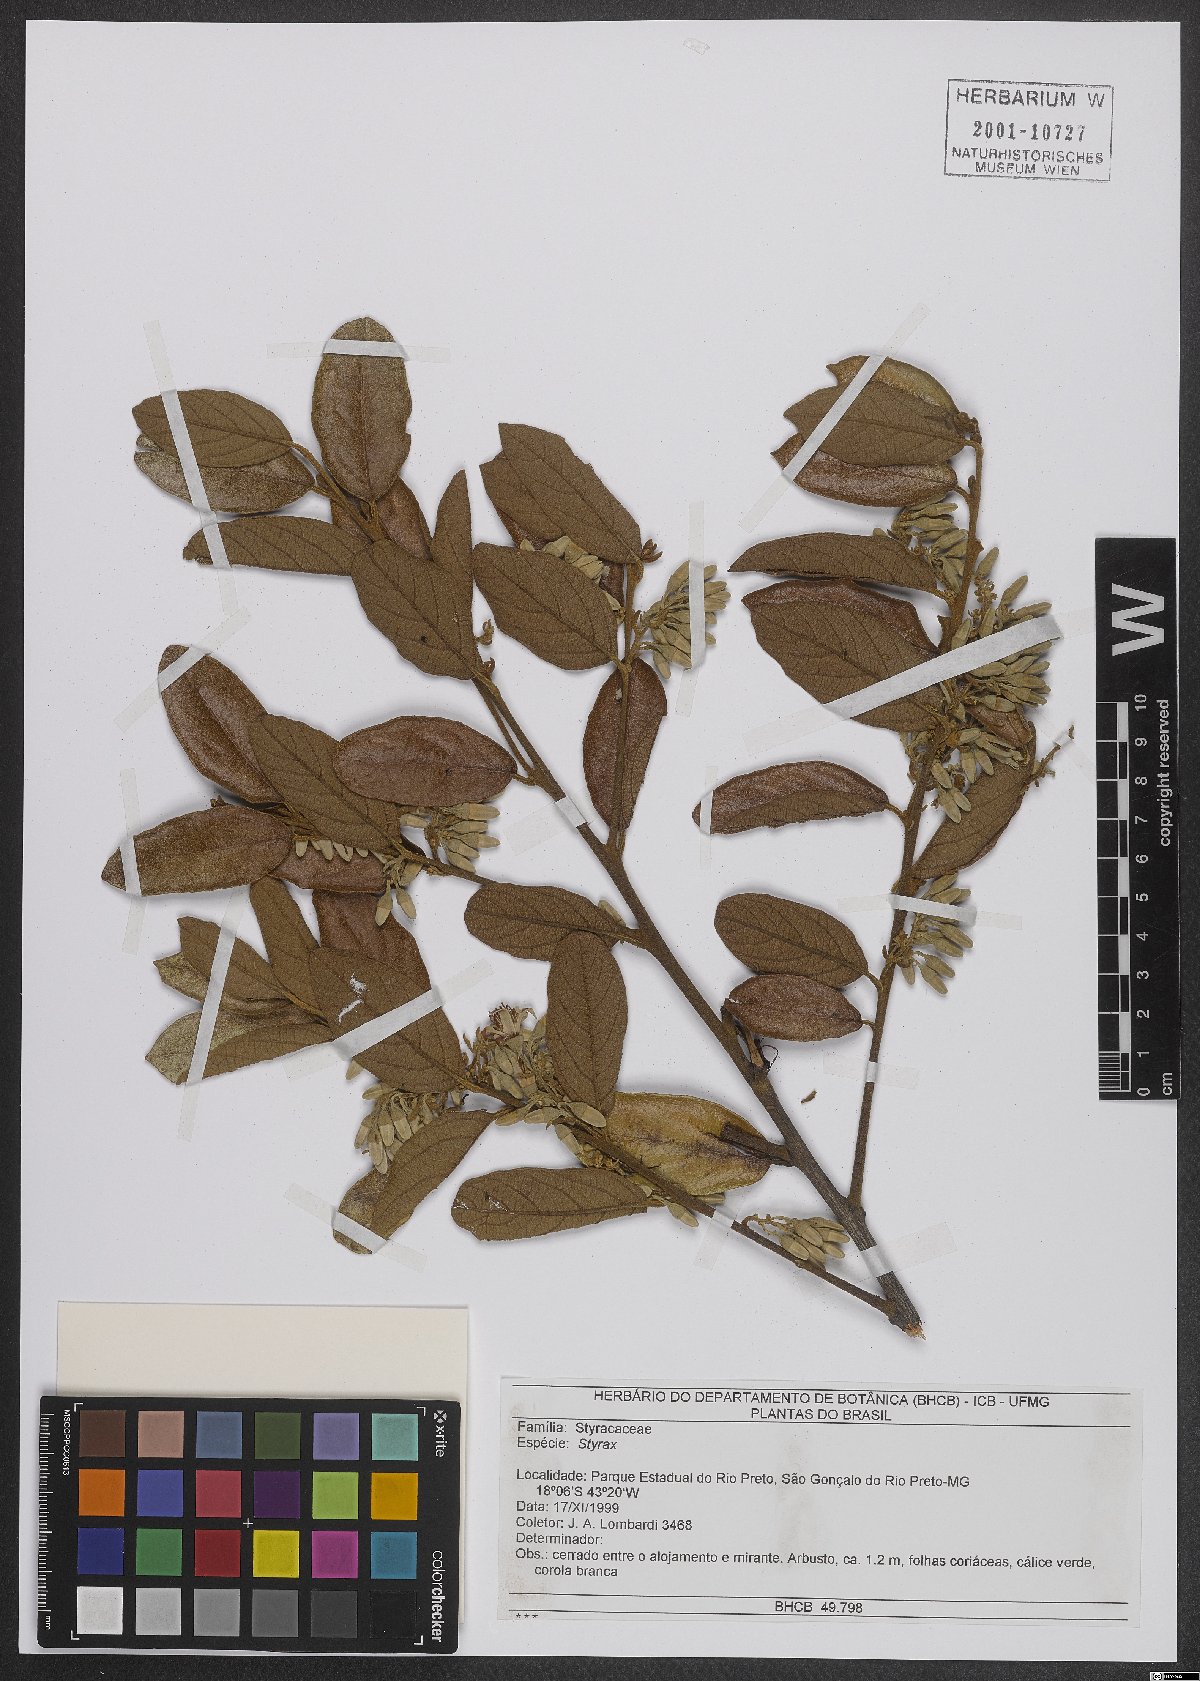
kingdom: Plantae
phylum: Tracheophyta
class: Magnoliopsida
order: Ericales
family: Styracaceae
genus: Styrax
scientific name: Styrax
